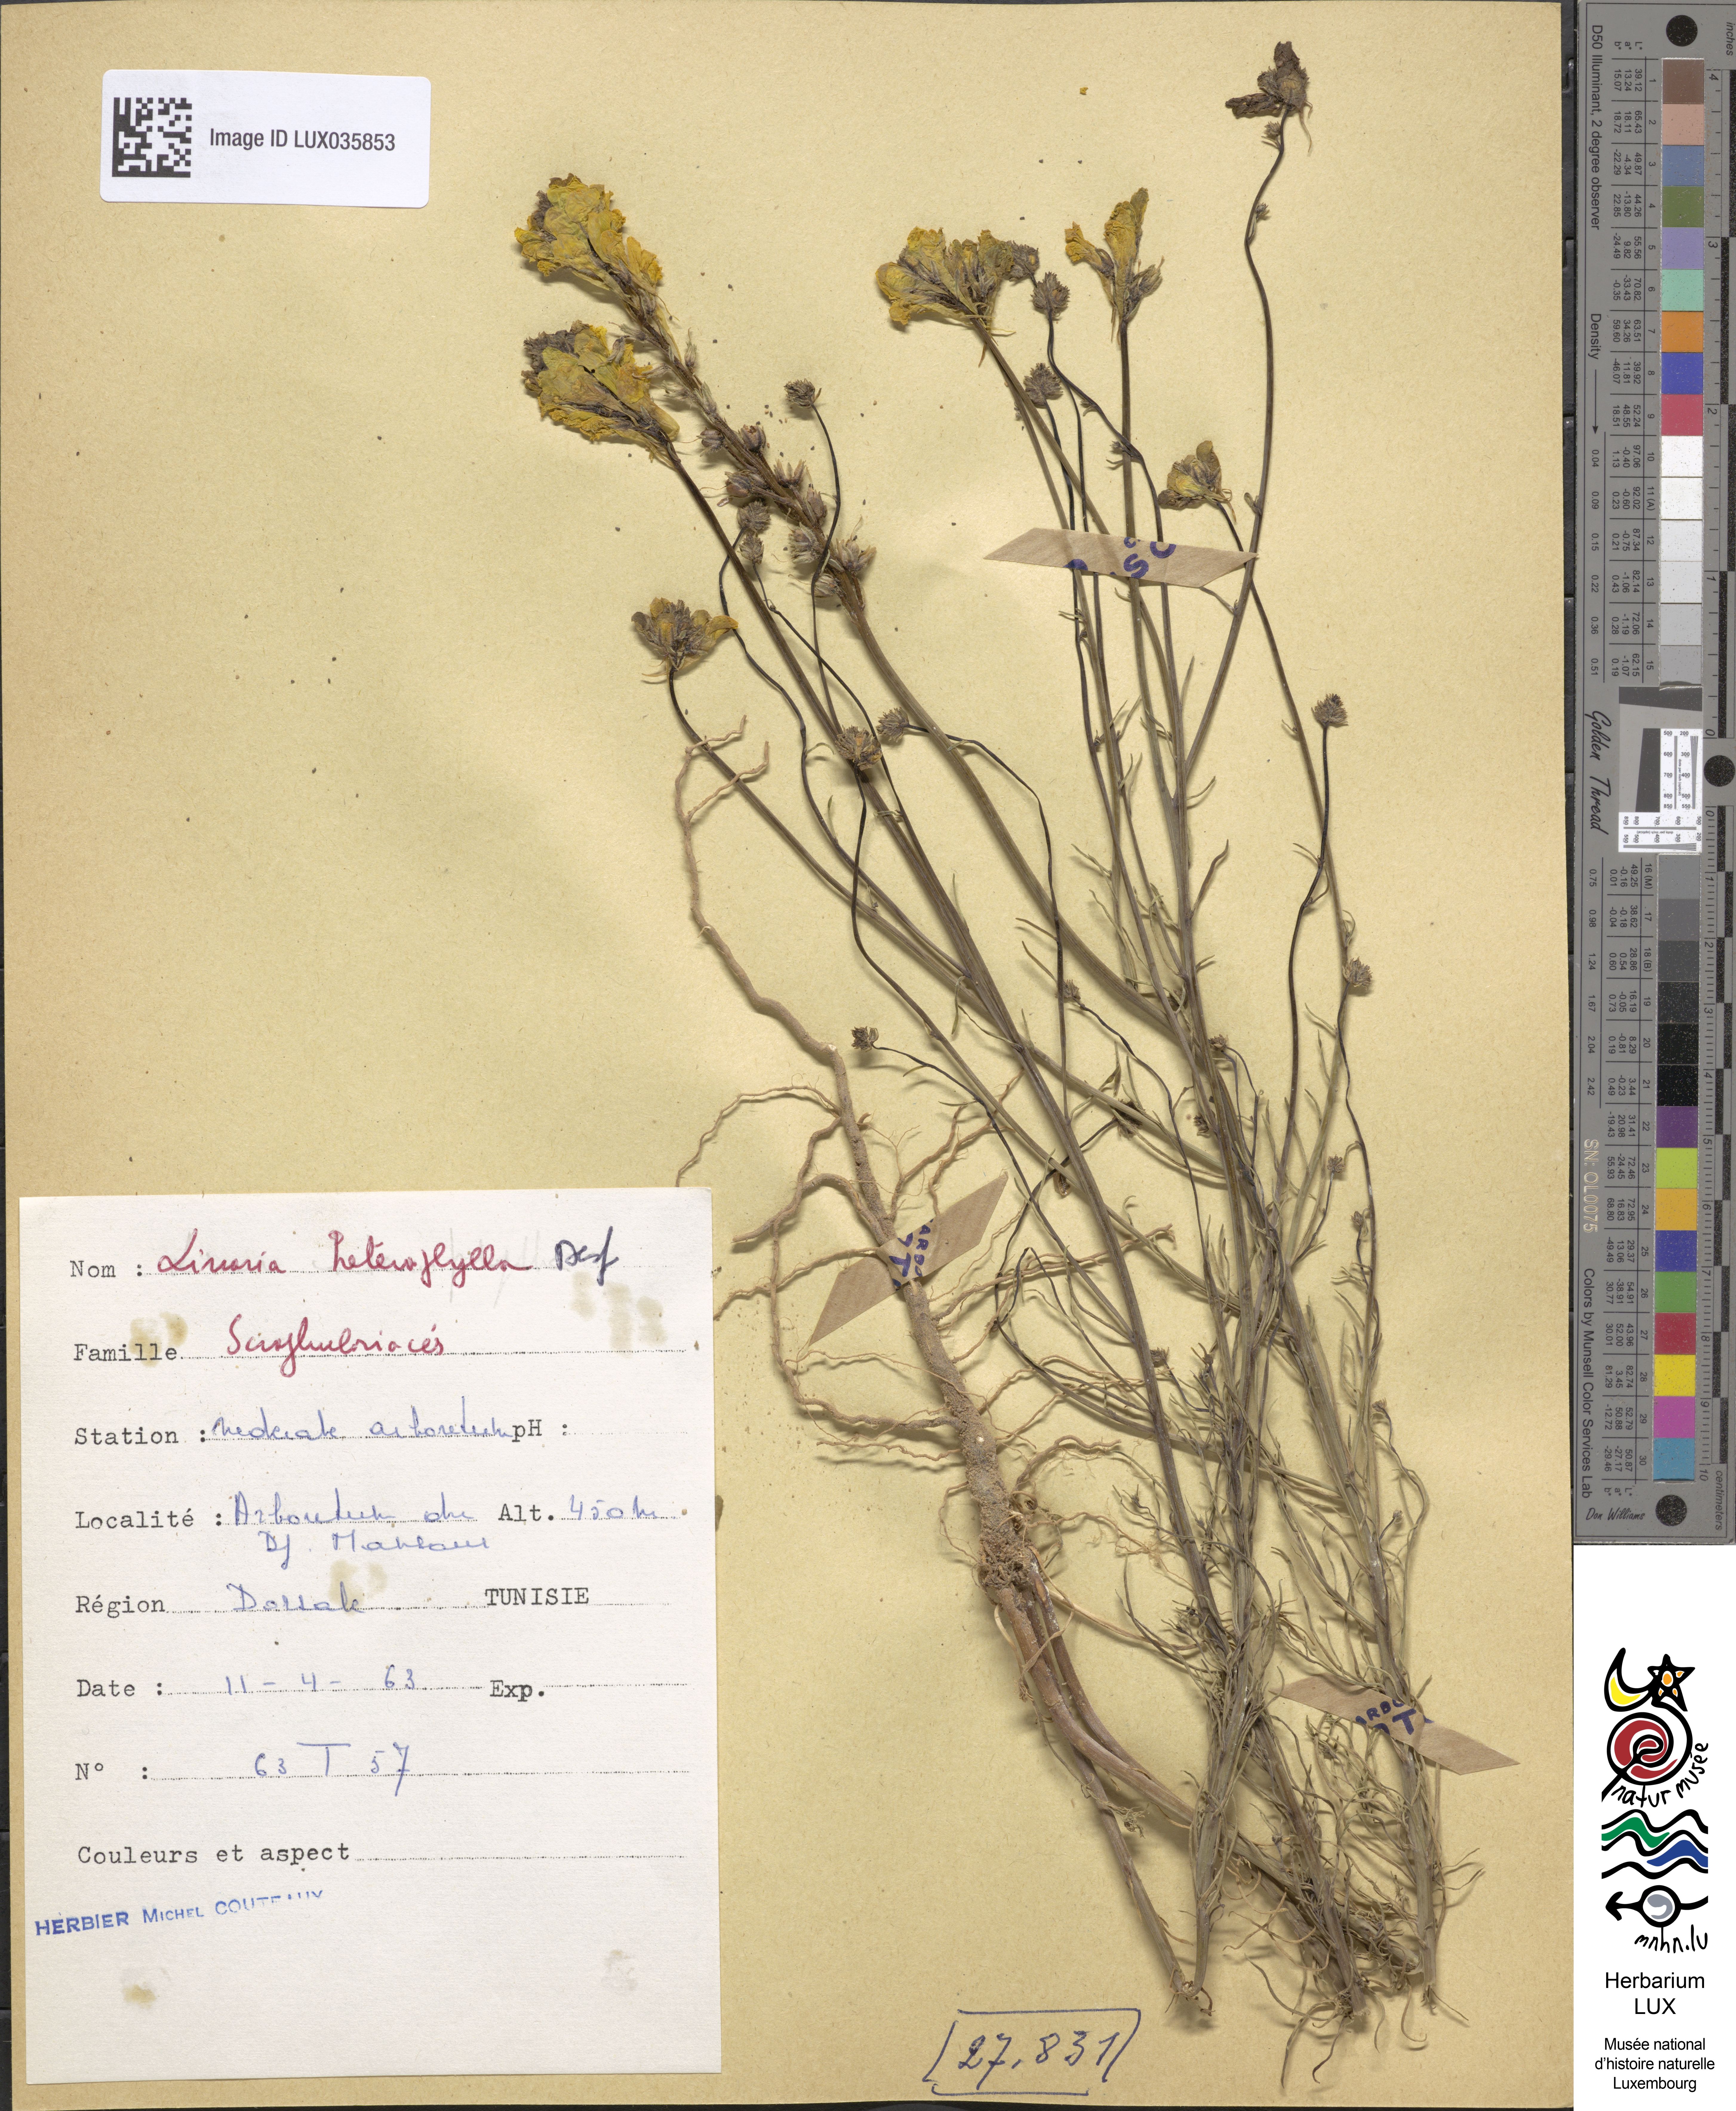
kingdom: Plantae
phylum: Tracheophyta
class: Magnoliopsida
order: Lamiales
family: Plantaginaceae
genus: Linaria
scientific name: Linaria multicaulis
